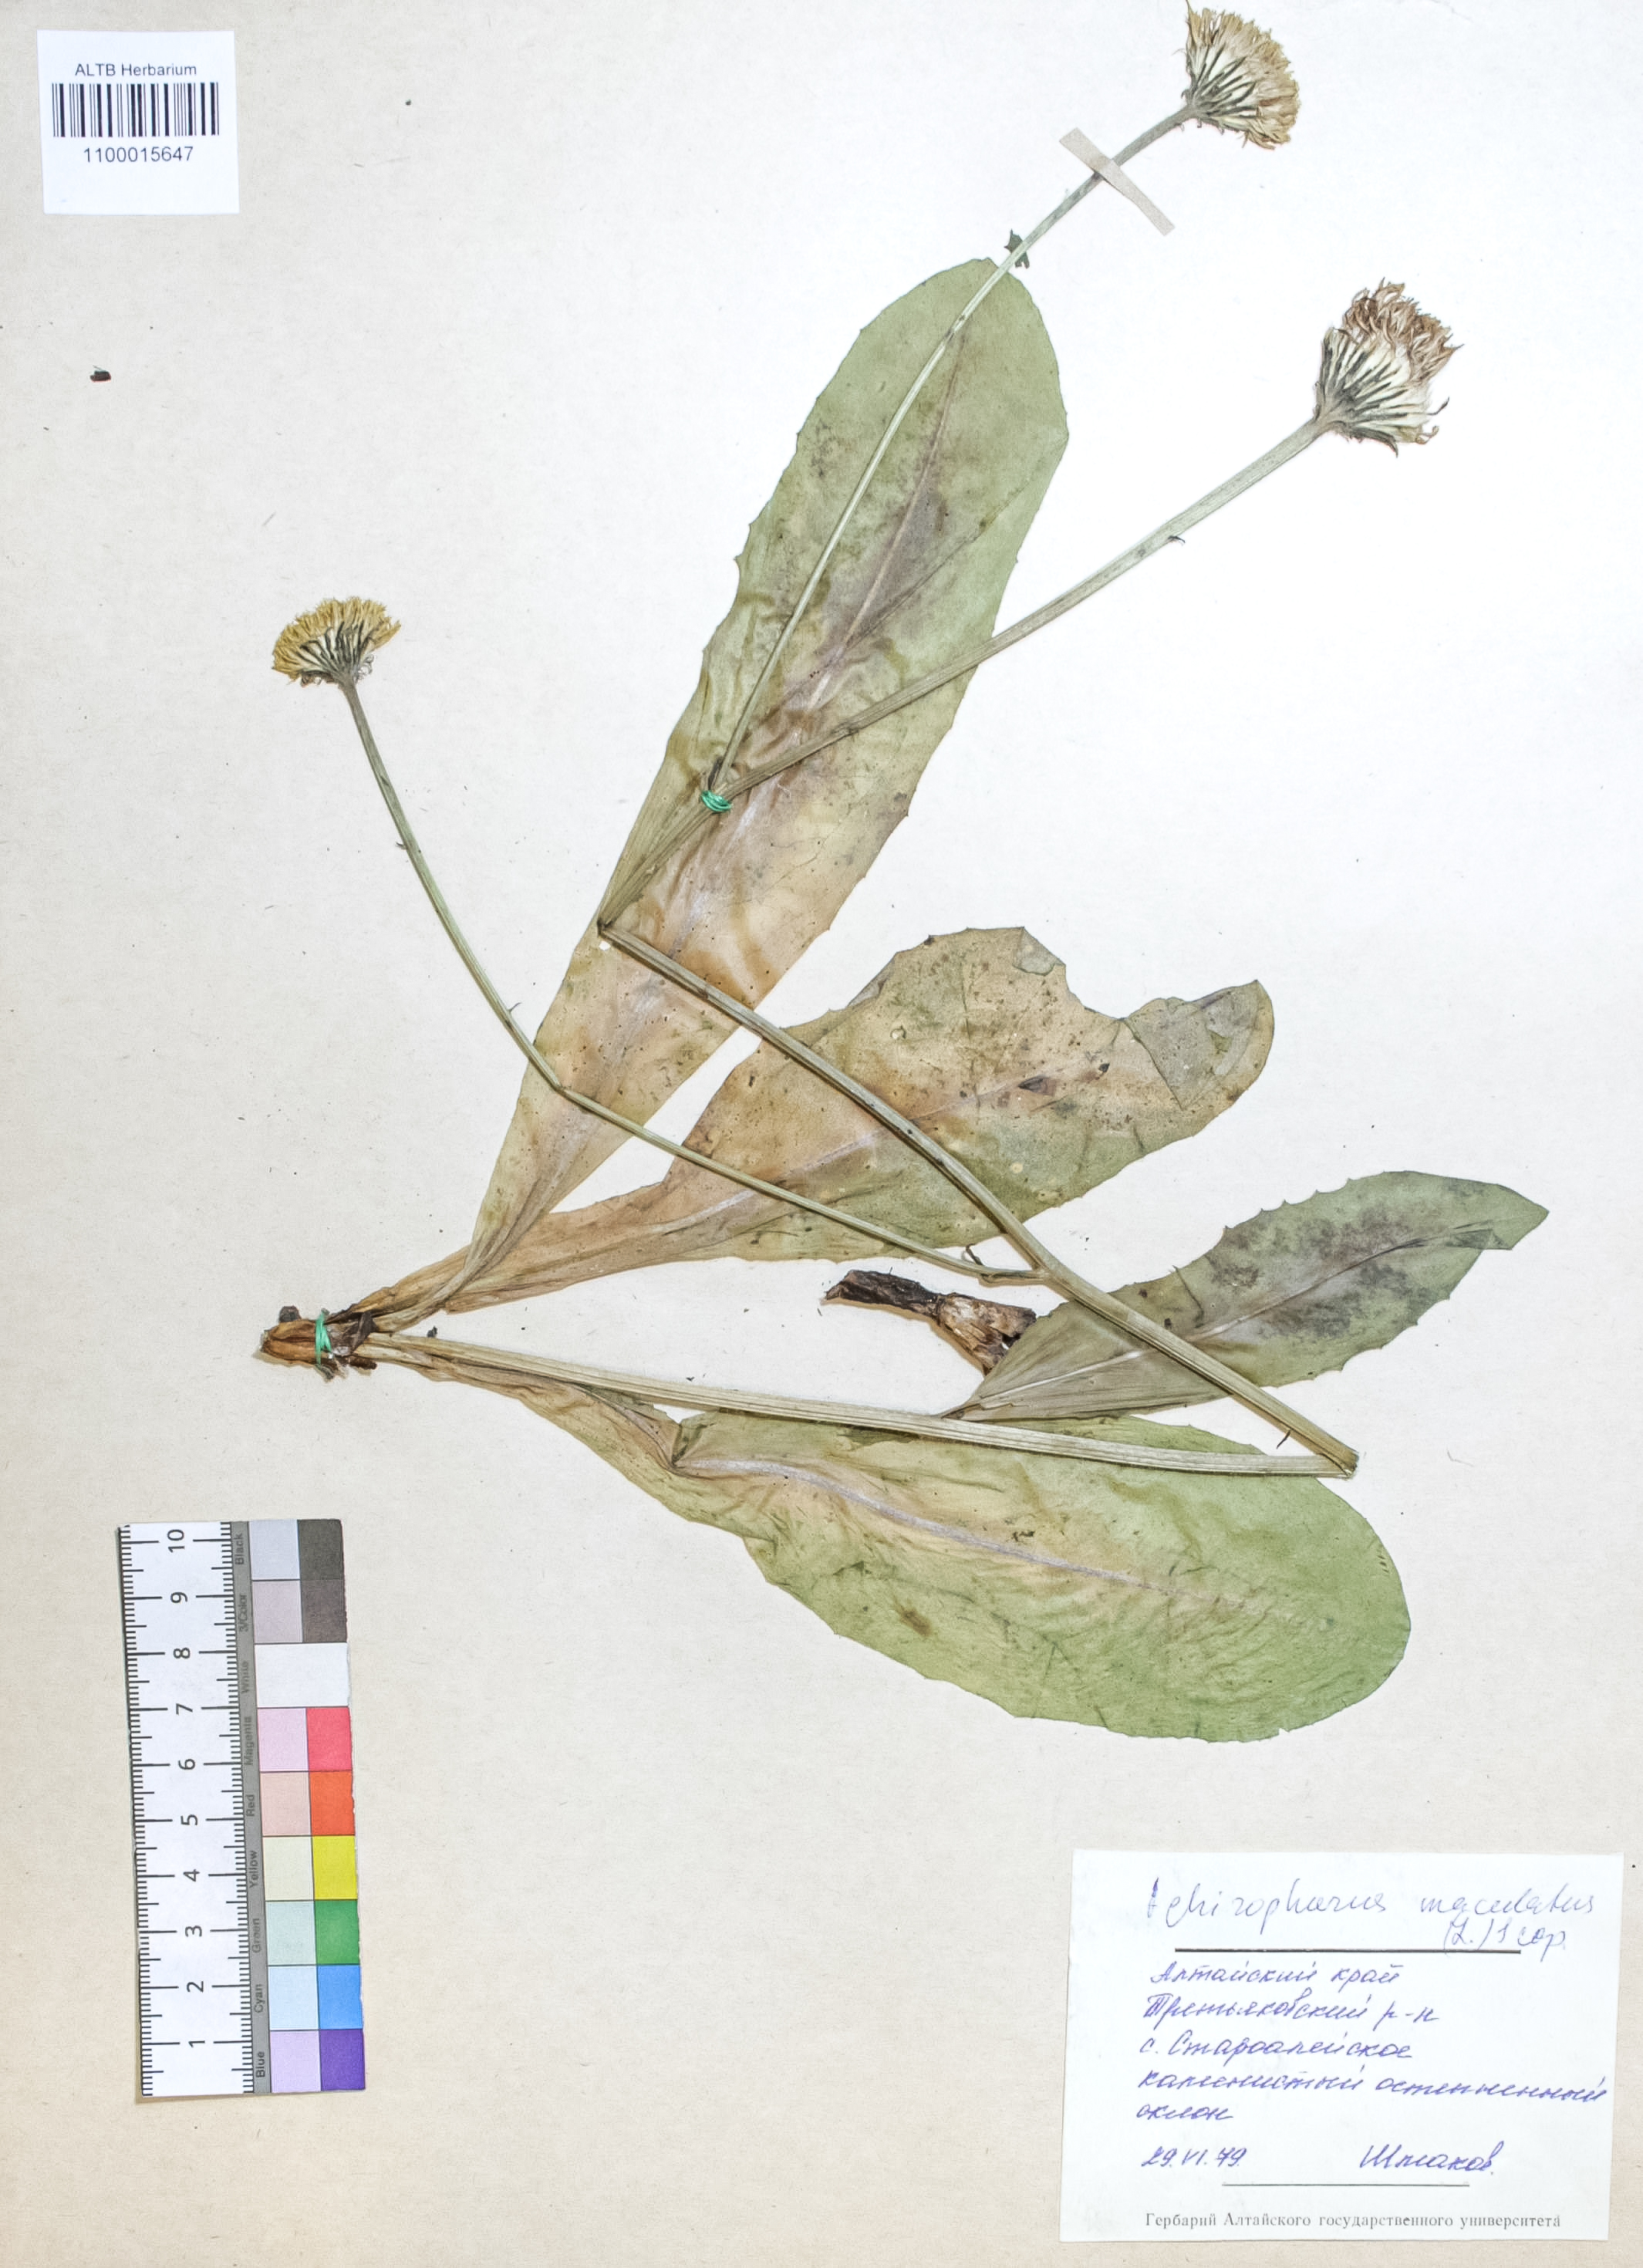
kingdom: Plantae
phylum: Tracheophyta
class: Magnoliopsida
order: Asterales
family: Asteraceae
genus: Trommsdorffia
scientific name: Trommsdorffia maculata
